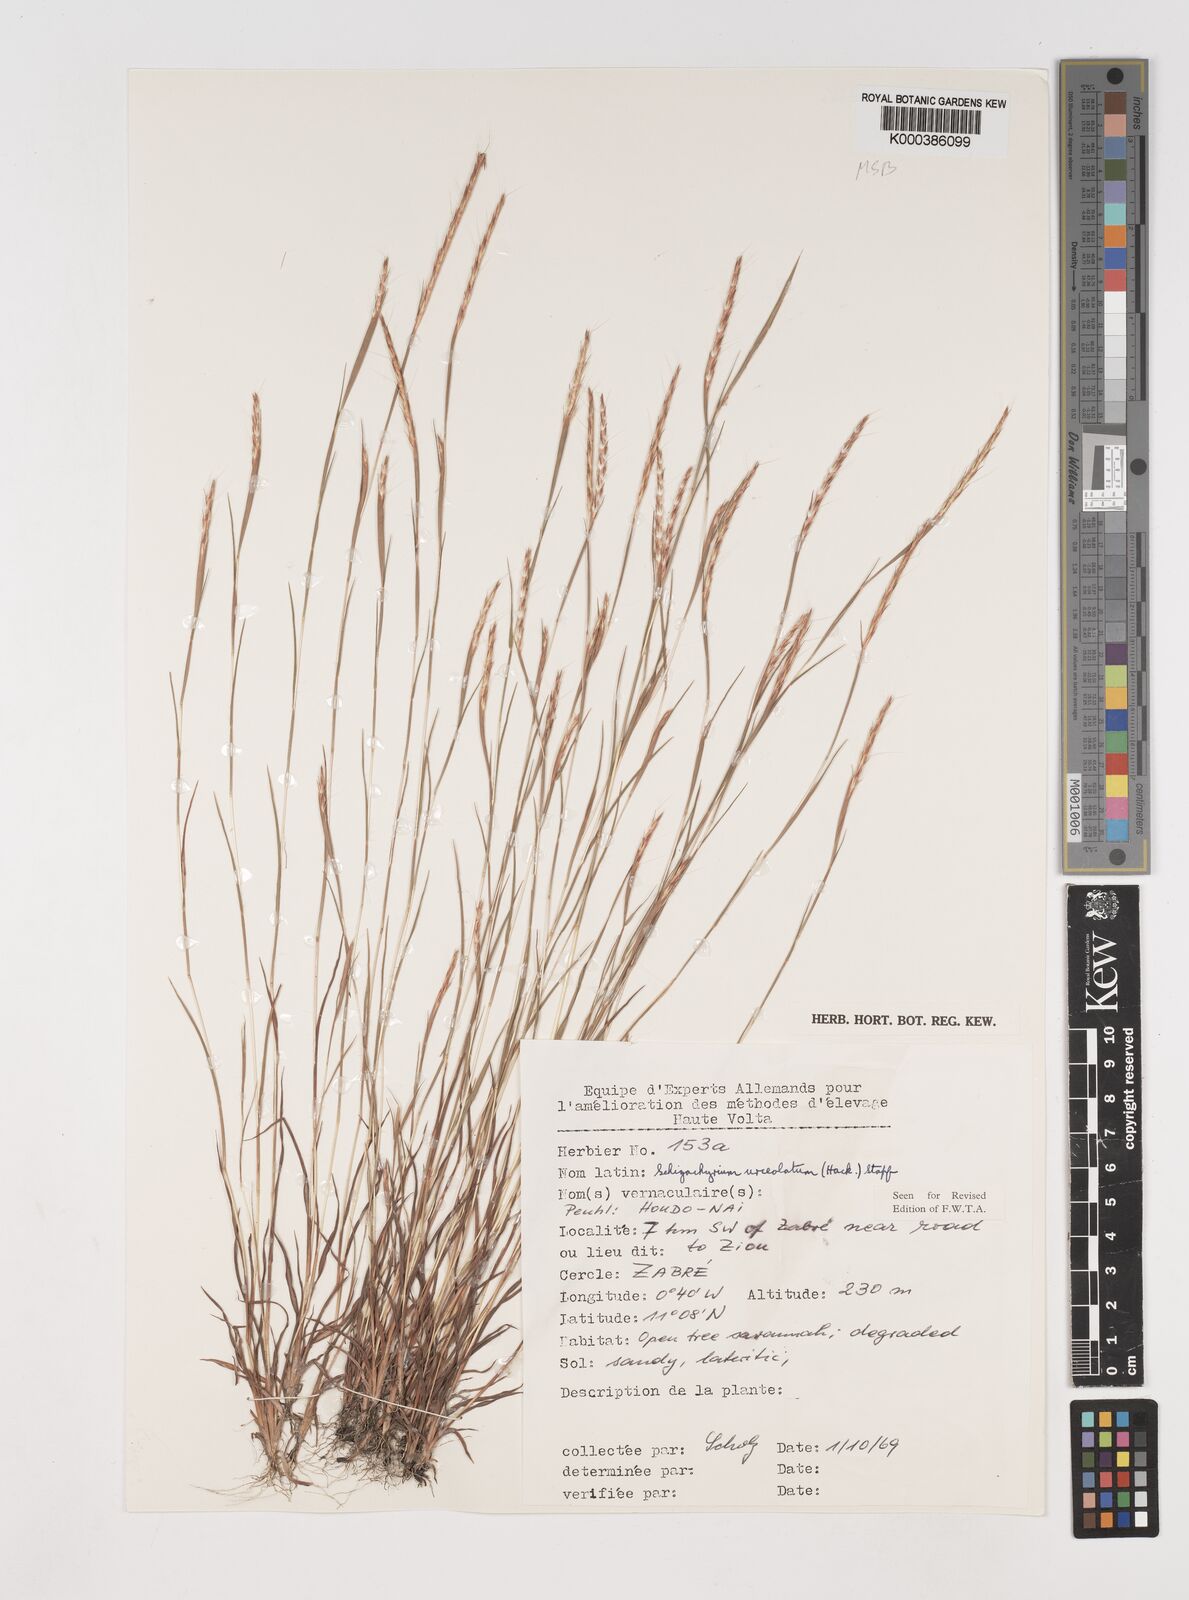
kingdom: Plantae
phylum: Tracheophyta
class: Liliopsida
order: Poales
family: Poaceae
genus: Schizachyrium
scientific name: Schizachyrium urceolatum
